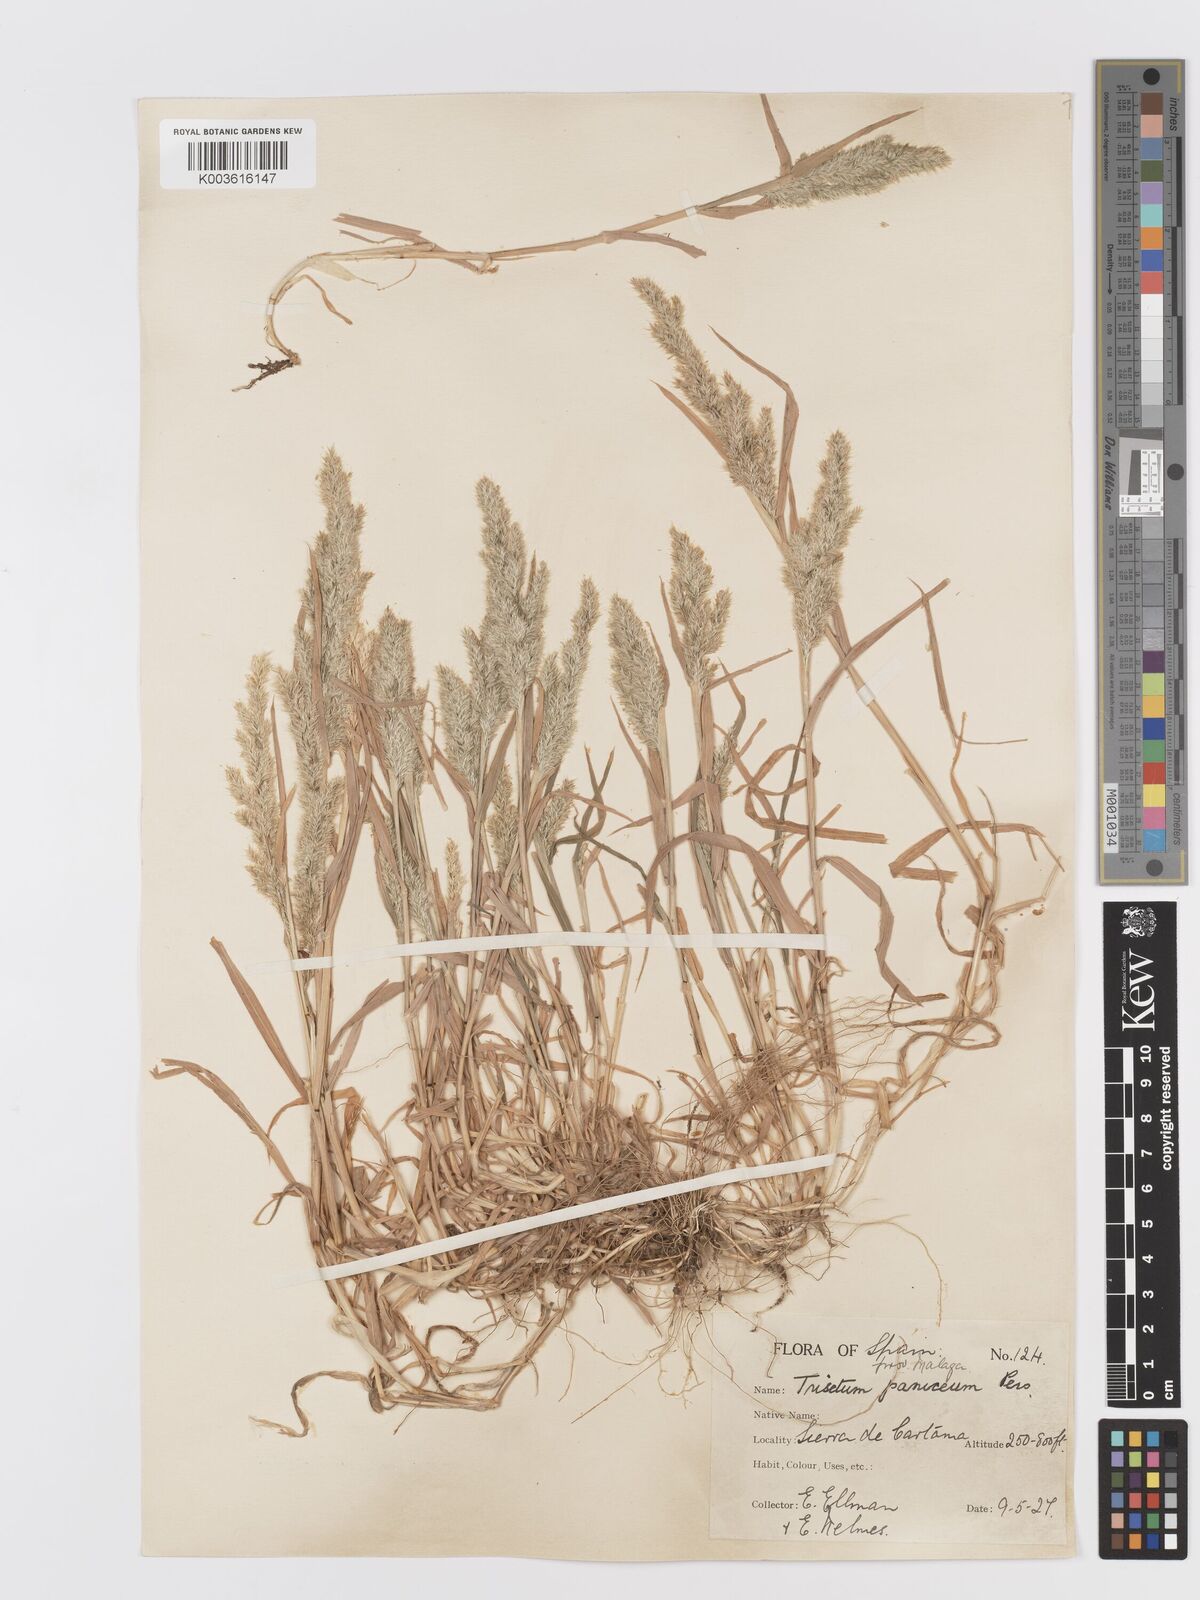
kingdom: Plantae
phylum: Tracheophyta
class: Liliopsida
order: Poales
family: Poaceae
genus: Trisetaria
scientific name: Trisetaria panicea
